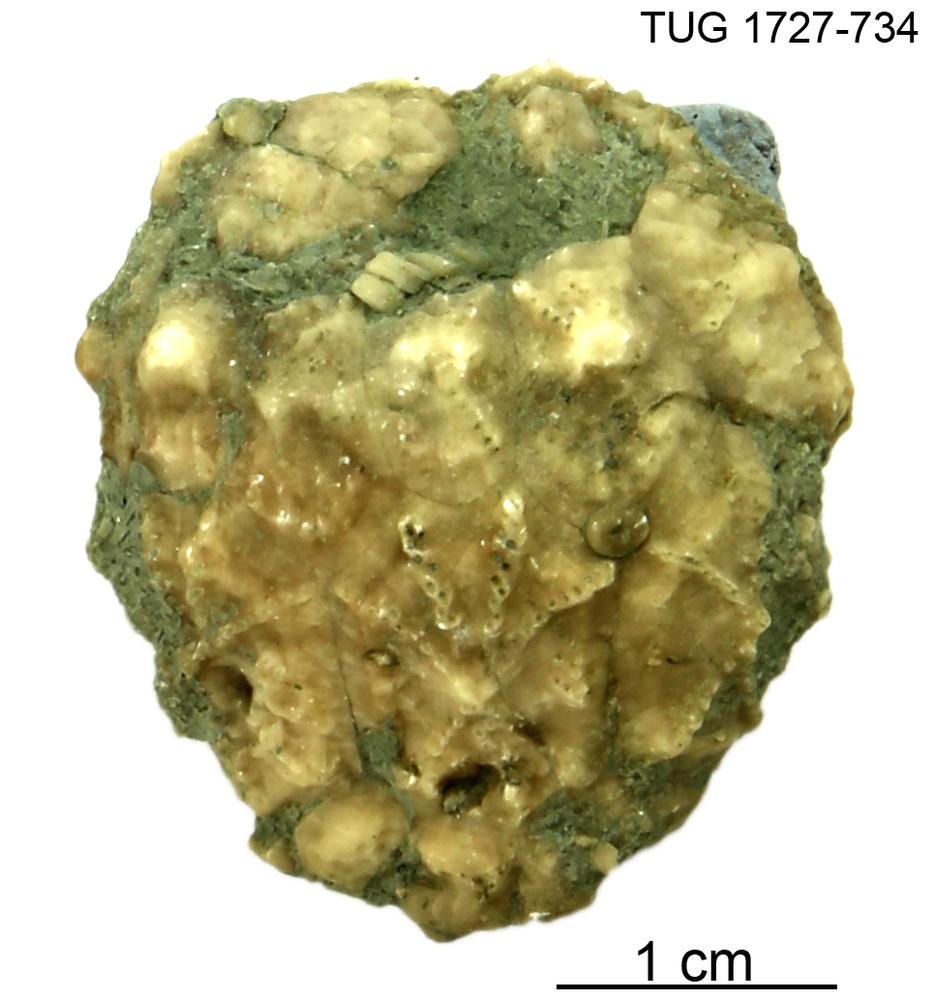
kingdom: Animalia
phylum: Echinodermata
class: Crinoidea
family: Hemicosmitidae
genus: Hemicosmites
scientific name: Hemicosmites
